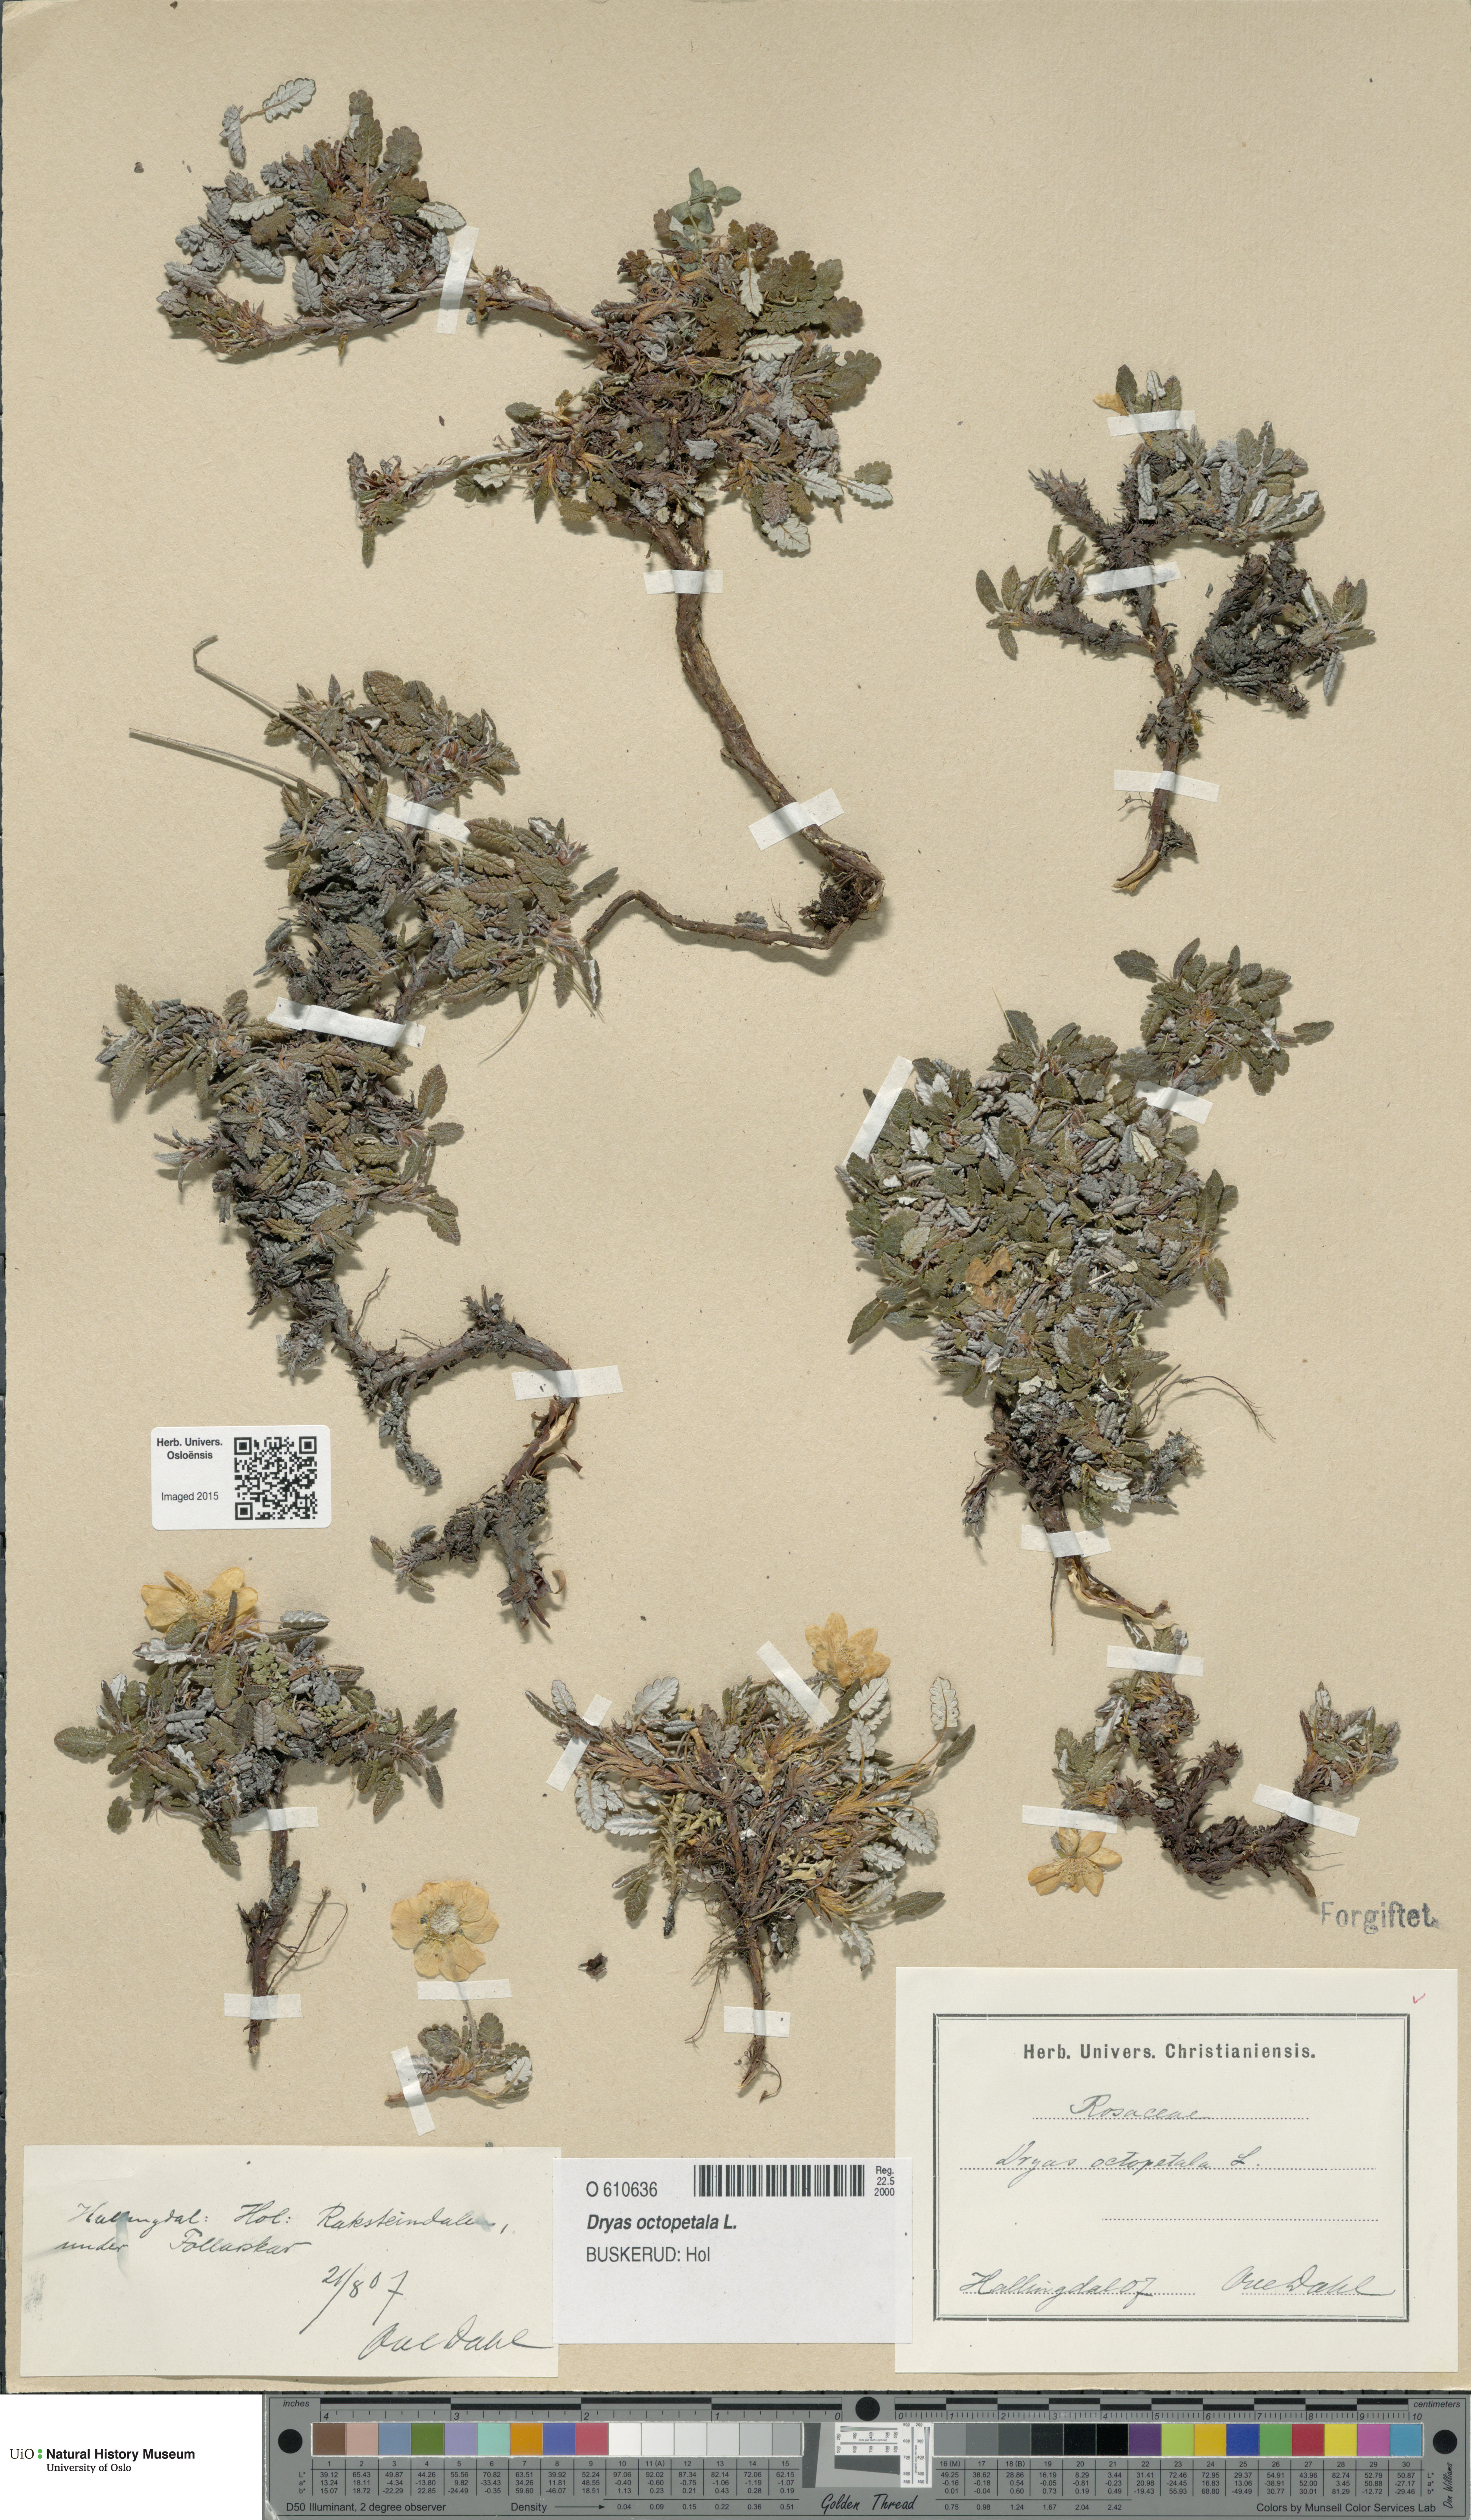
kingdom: Plantae
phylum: Tracheophyta
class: Magnoliopsida
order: Rosales
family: Rosaceae
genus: Dryas
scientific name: Dryas octopetala
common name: Eight-petal mountain-avens
